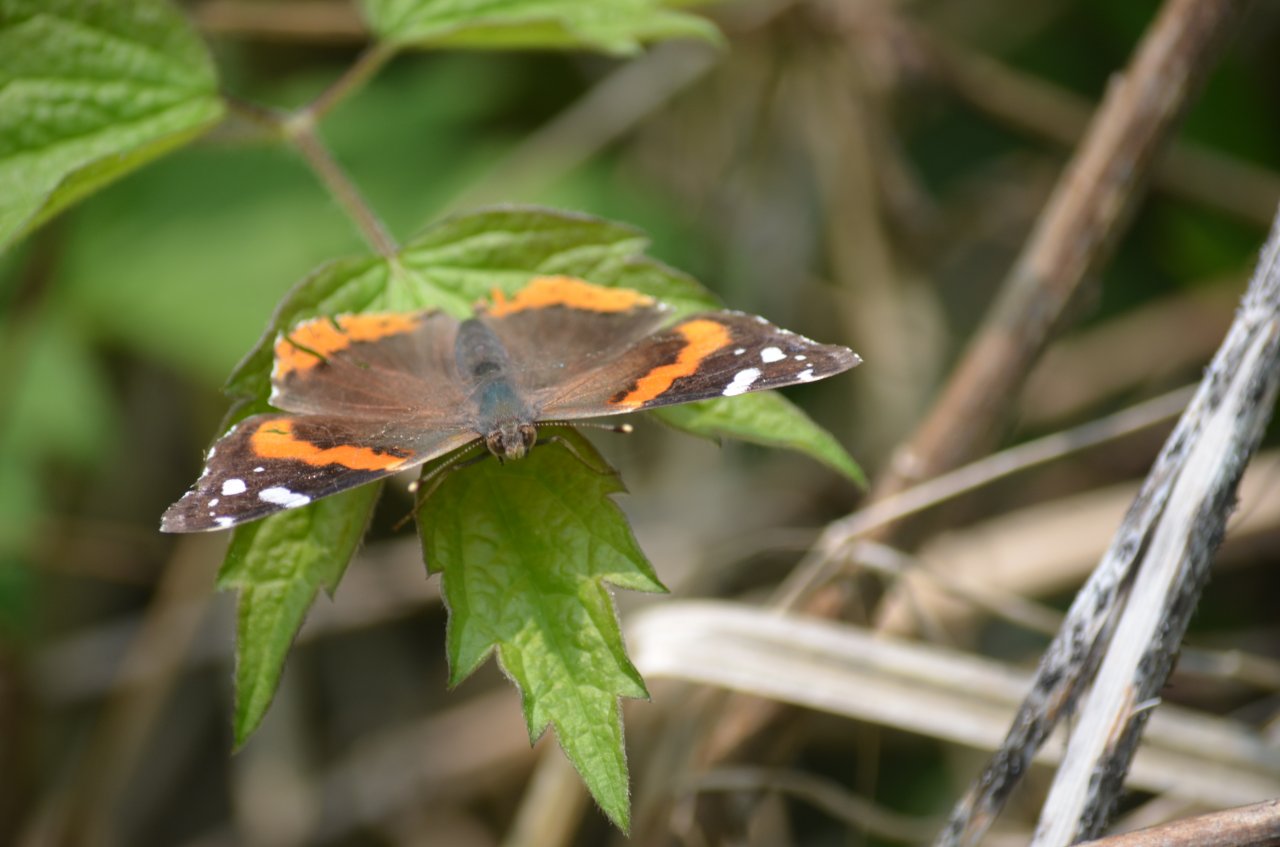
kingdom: Animalia
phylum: Arthropoda
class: Insecta
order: Lepidoptera
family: Nymphalidae
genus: Vanessa
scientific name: Vanessa atalanta
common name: Red Admiral
